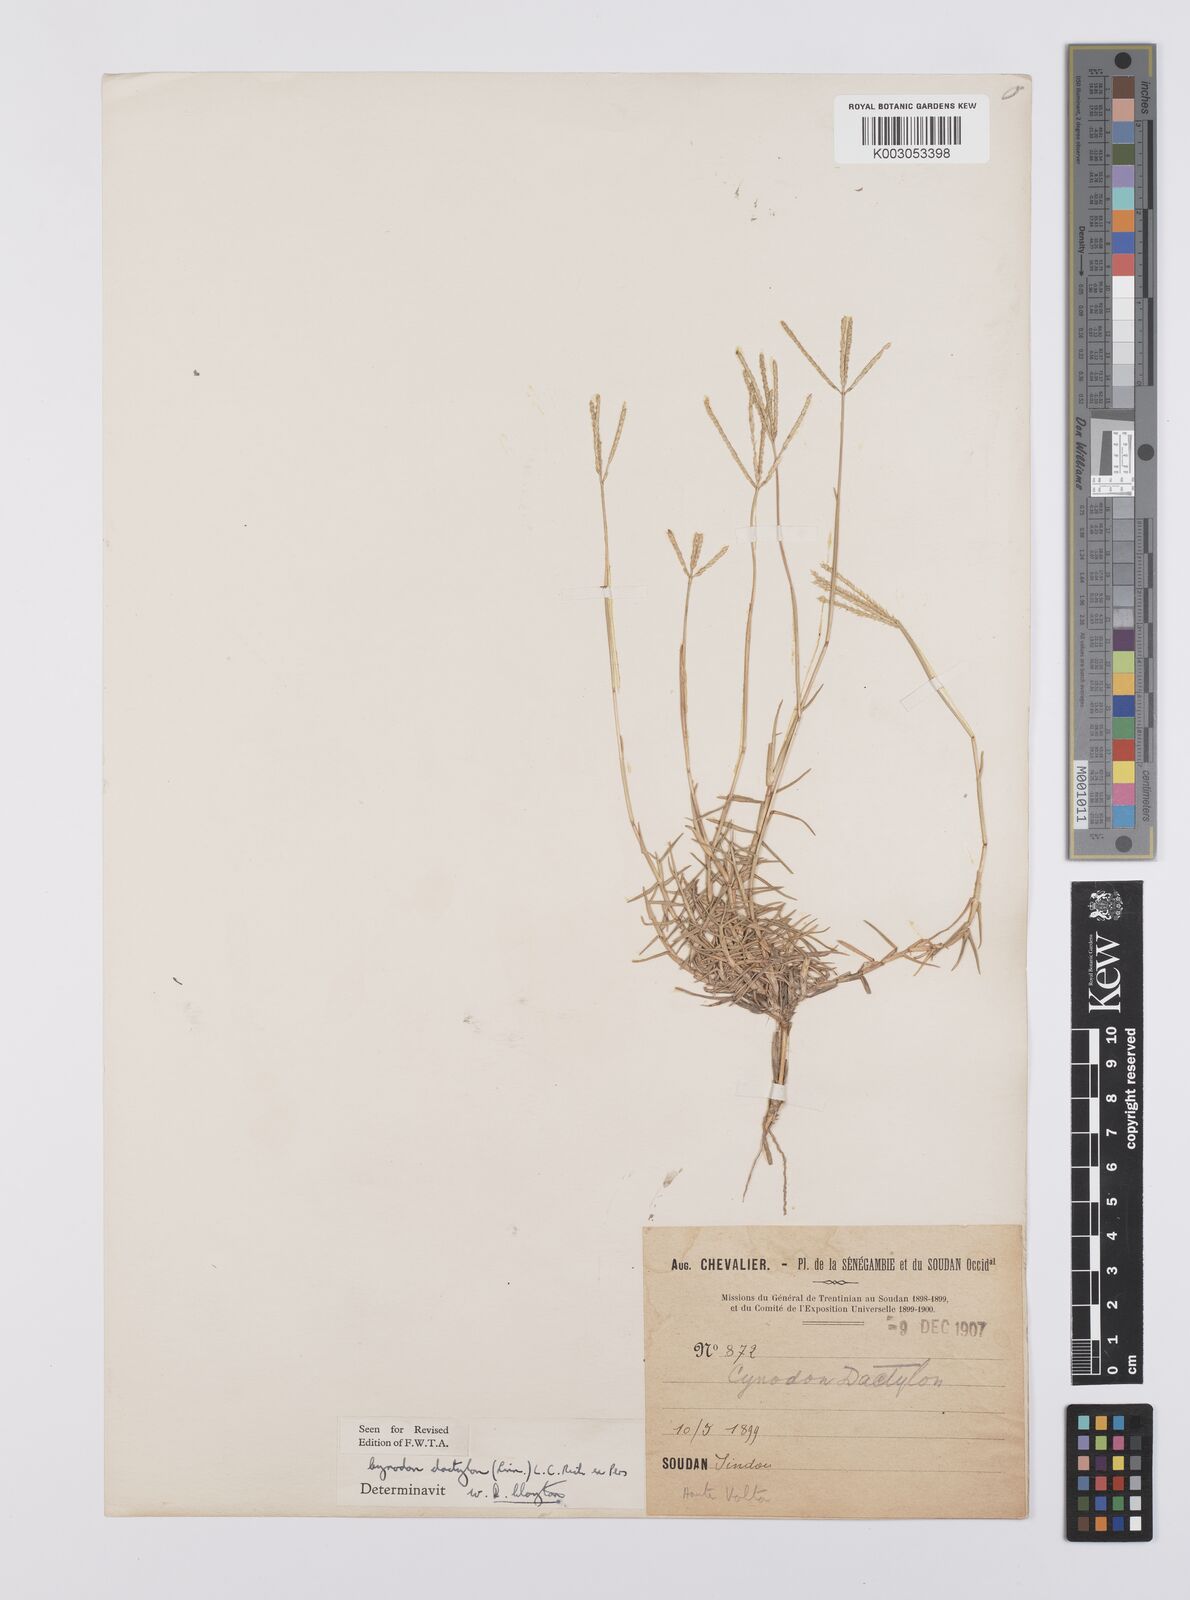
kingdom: Plantae
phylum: Tracheophyta
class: Liliopsida
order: Poales
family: Poaceae
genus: Cynodon
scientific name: Cynodon dactylon
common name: Bermuda grass
